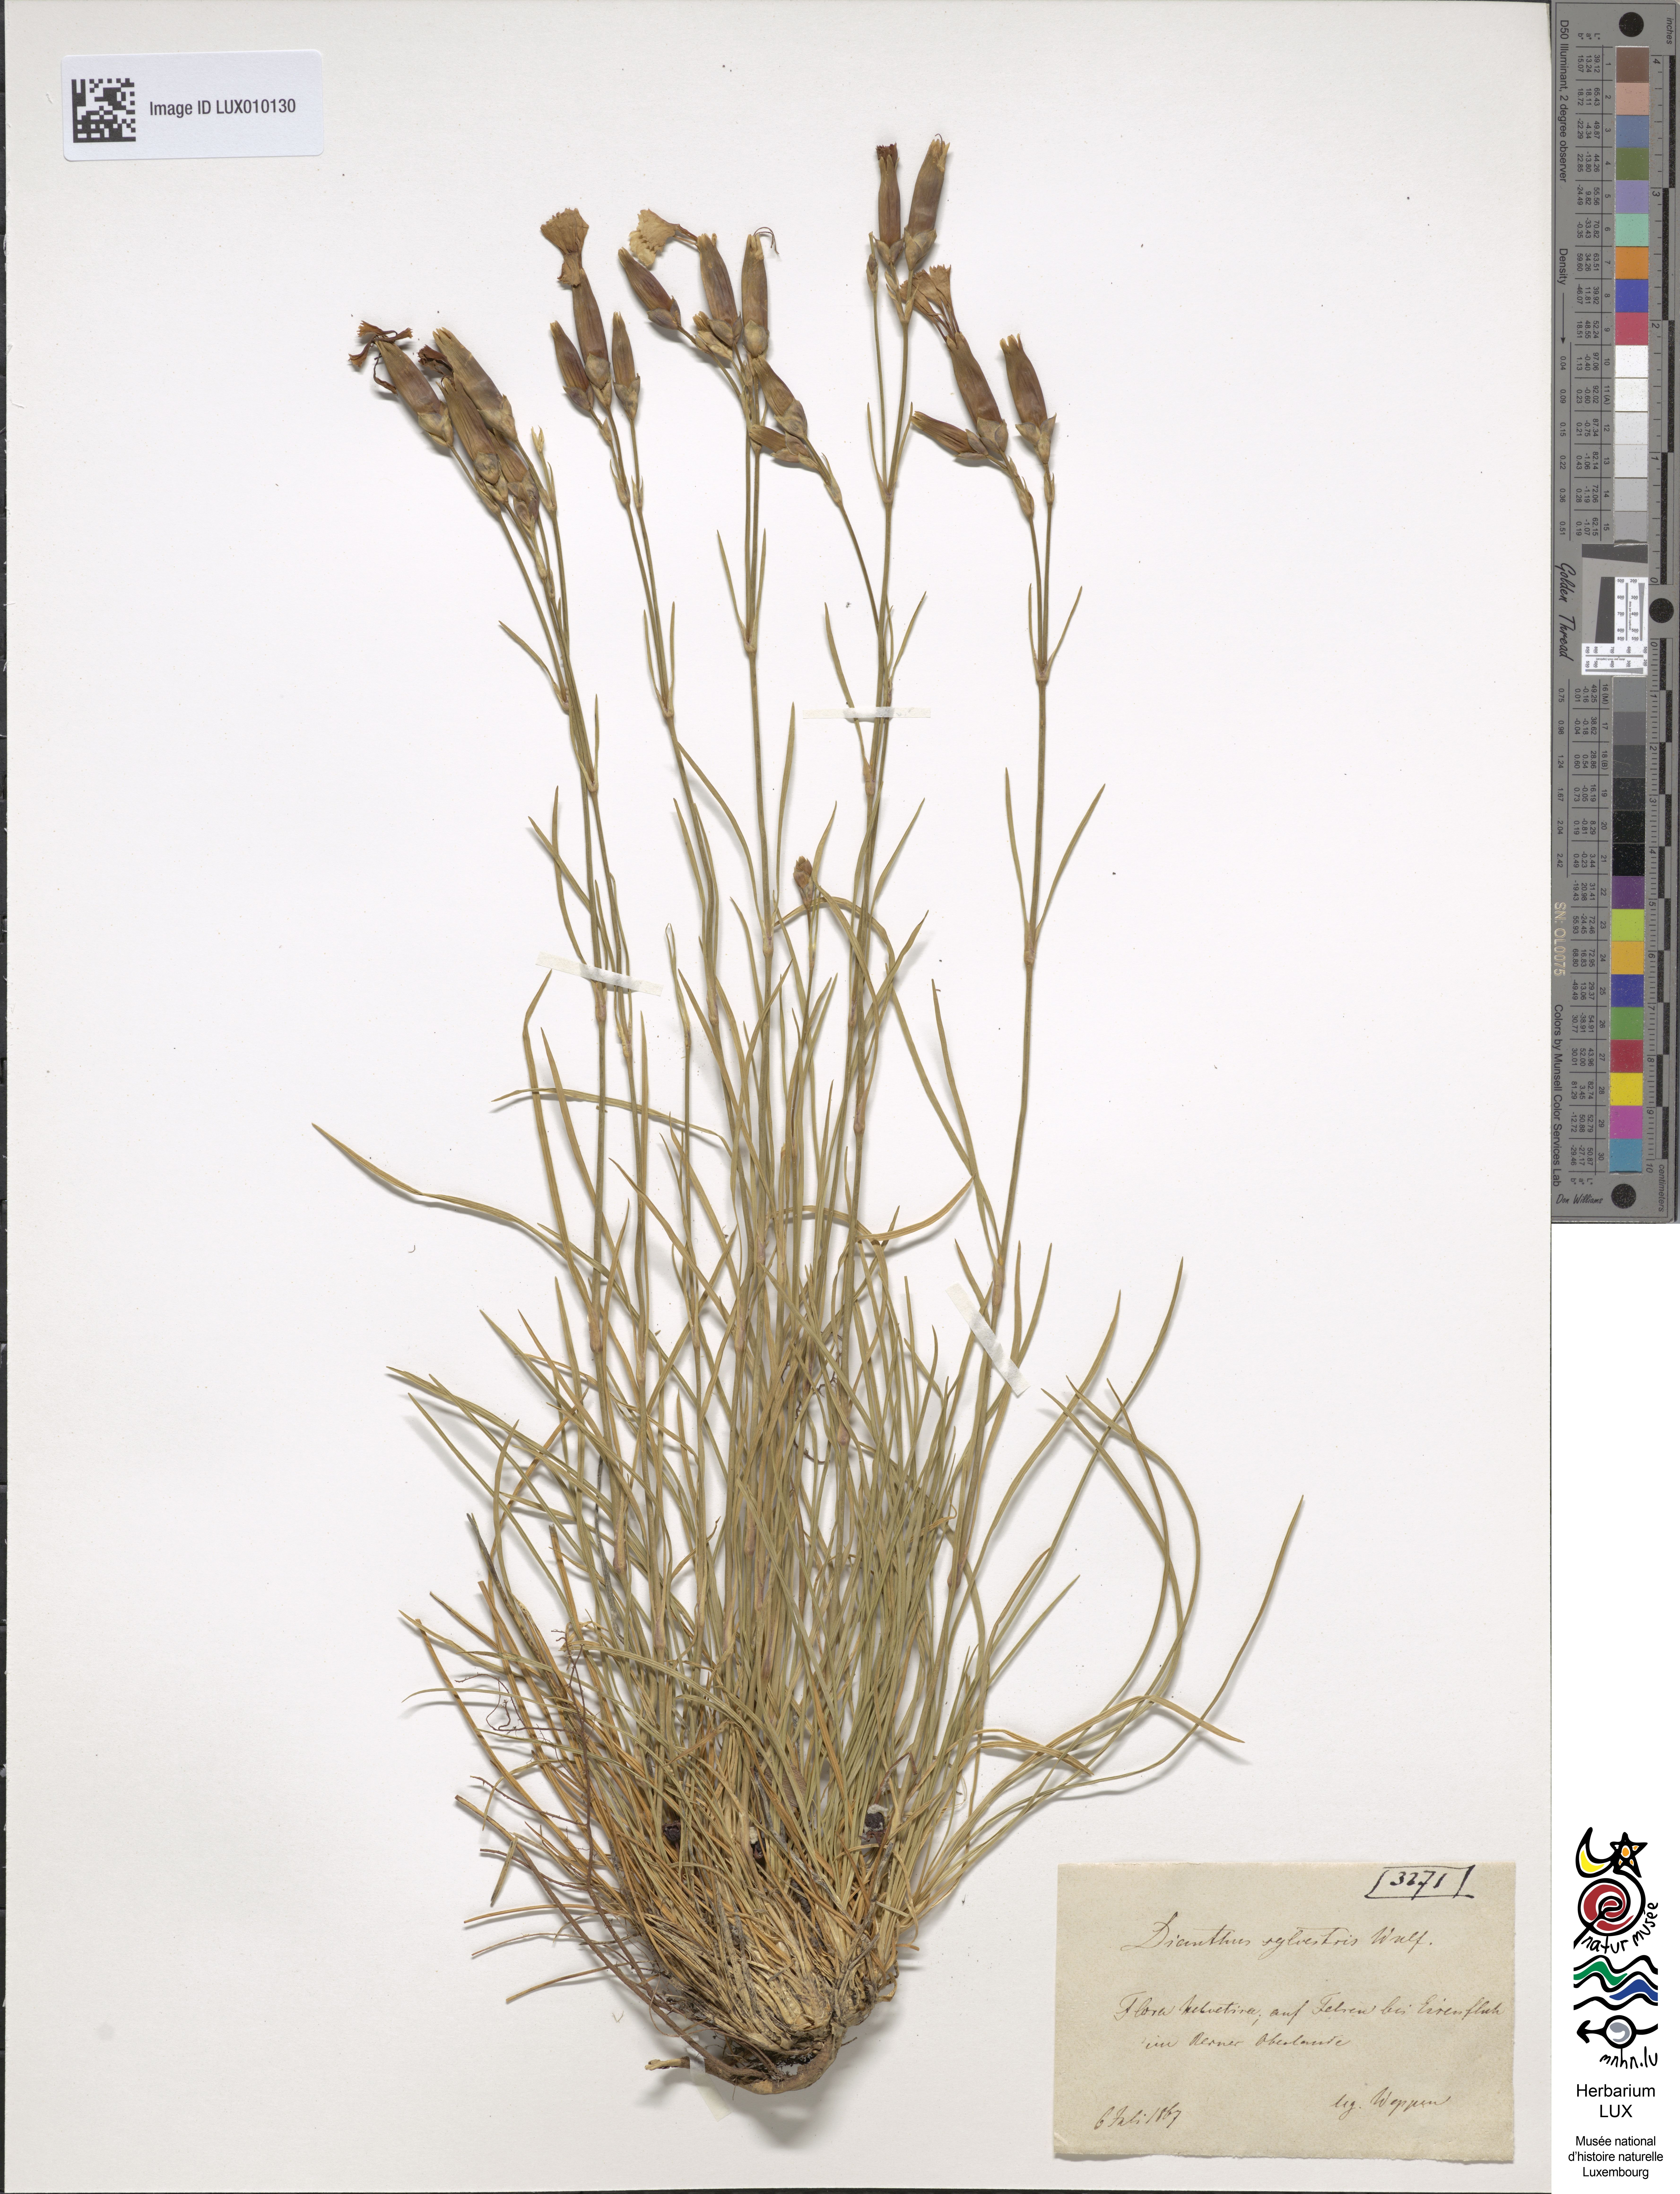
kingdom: Plantae
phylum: Tracheophyta
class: Magnoliopsida
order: Caryophyllales
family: Caryophyllaceae
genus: Dianthus
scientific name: Dianthus sylvestris
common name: Wood pink
